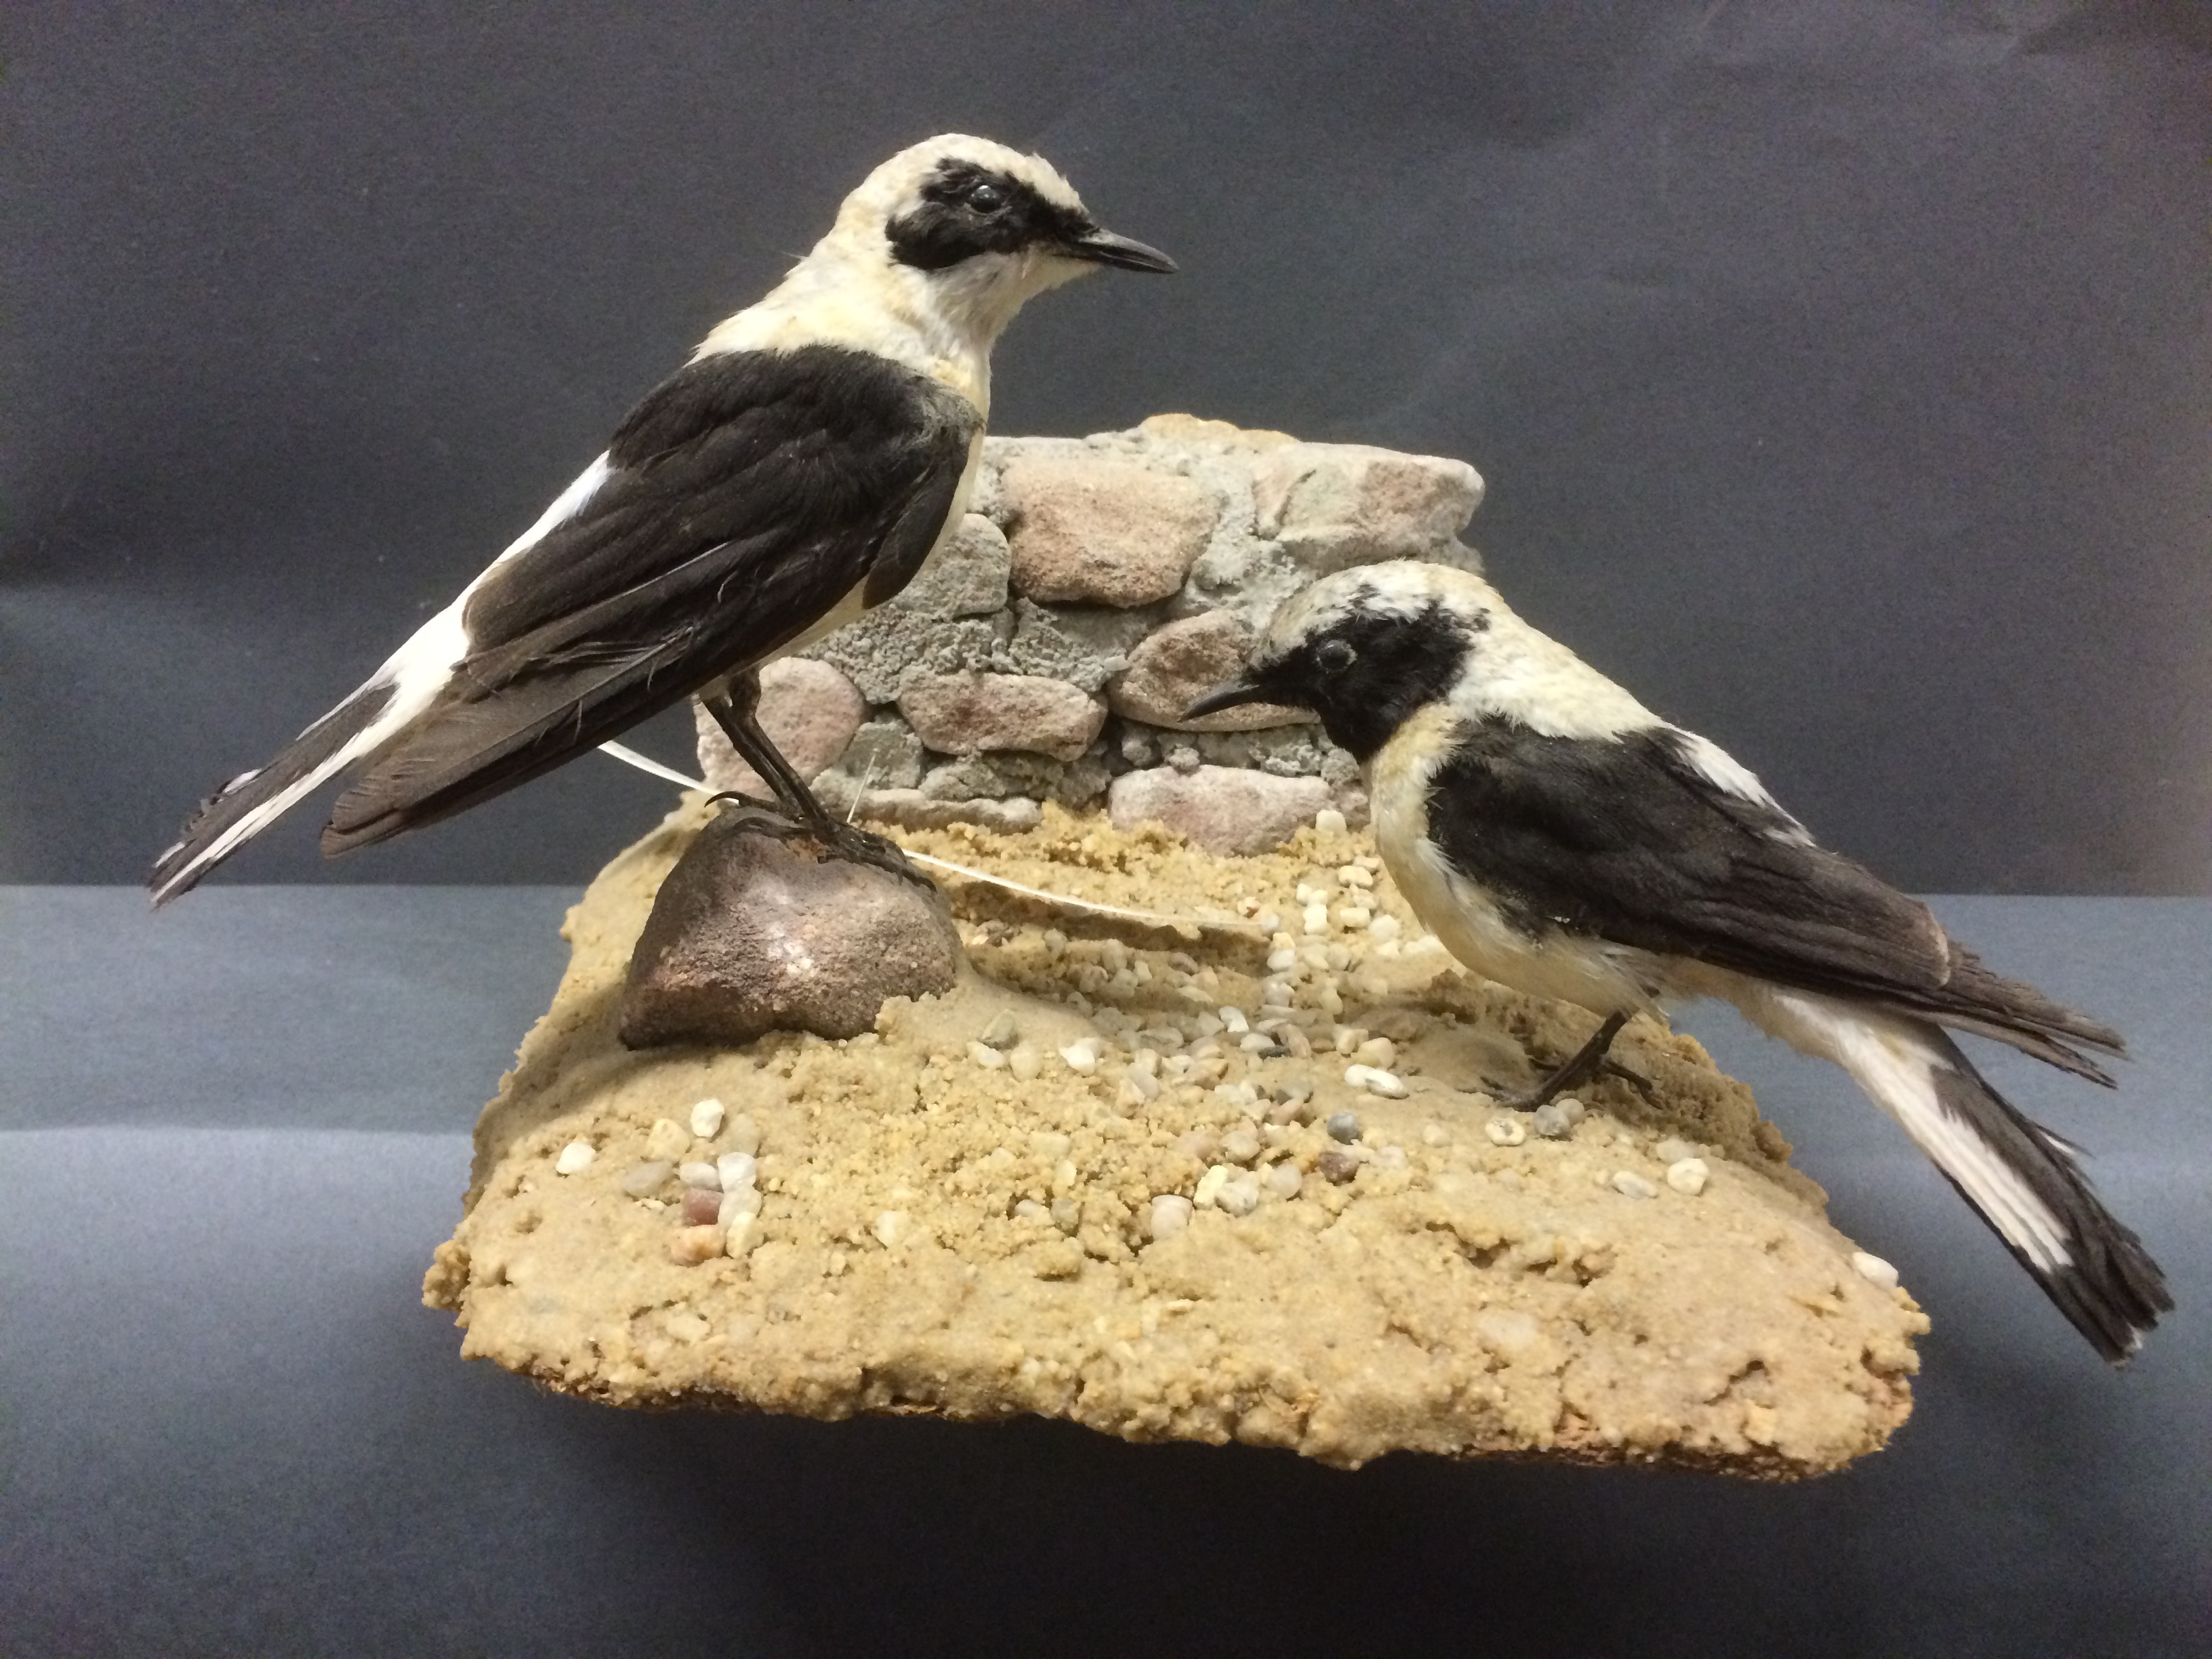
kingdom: Animalia
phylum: Chordata
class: Aves
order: Passeriformes
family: Muscicapidae
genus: Oenanthe
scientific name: Oenanthe hispanica
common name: Black-eared wheatear
